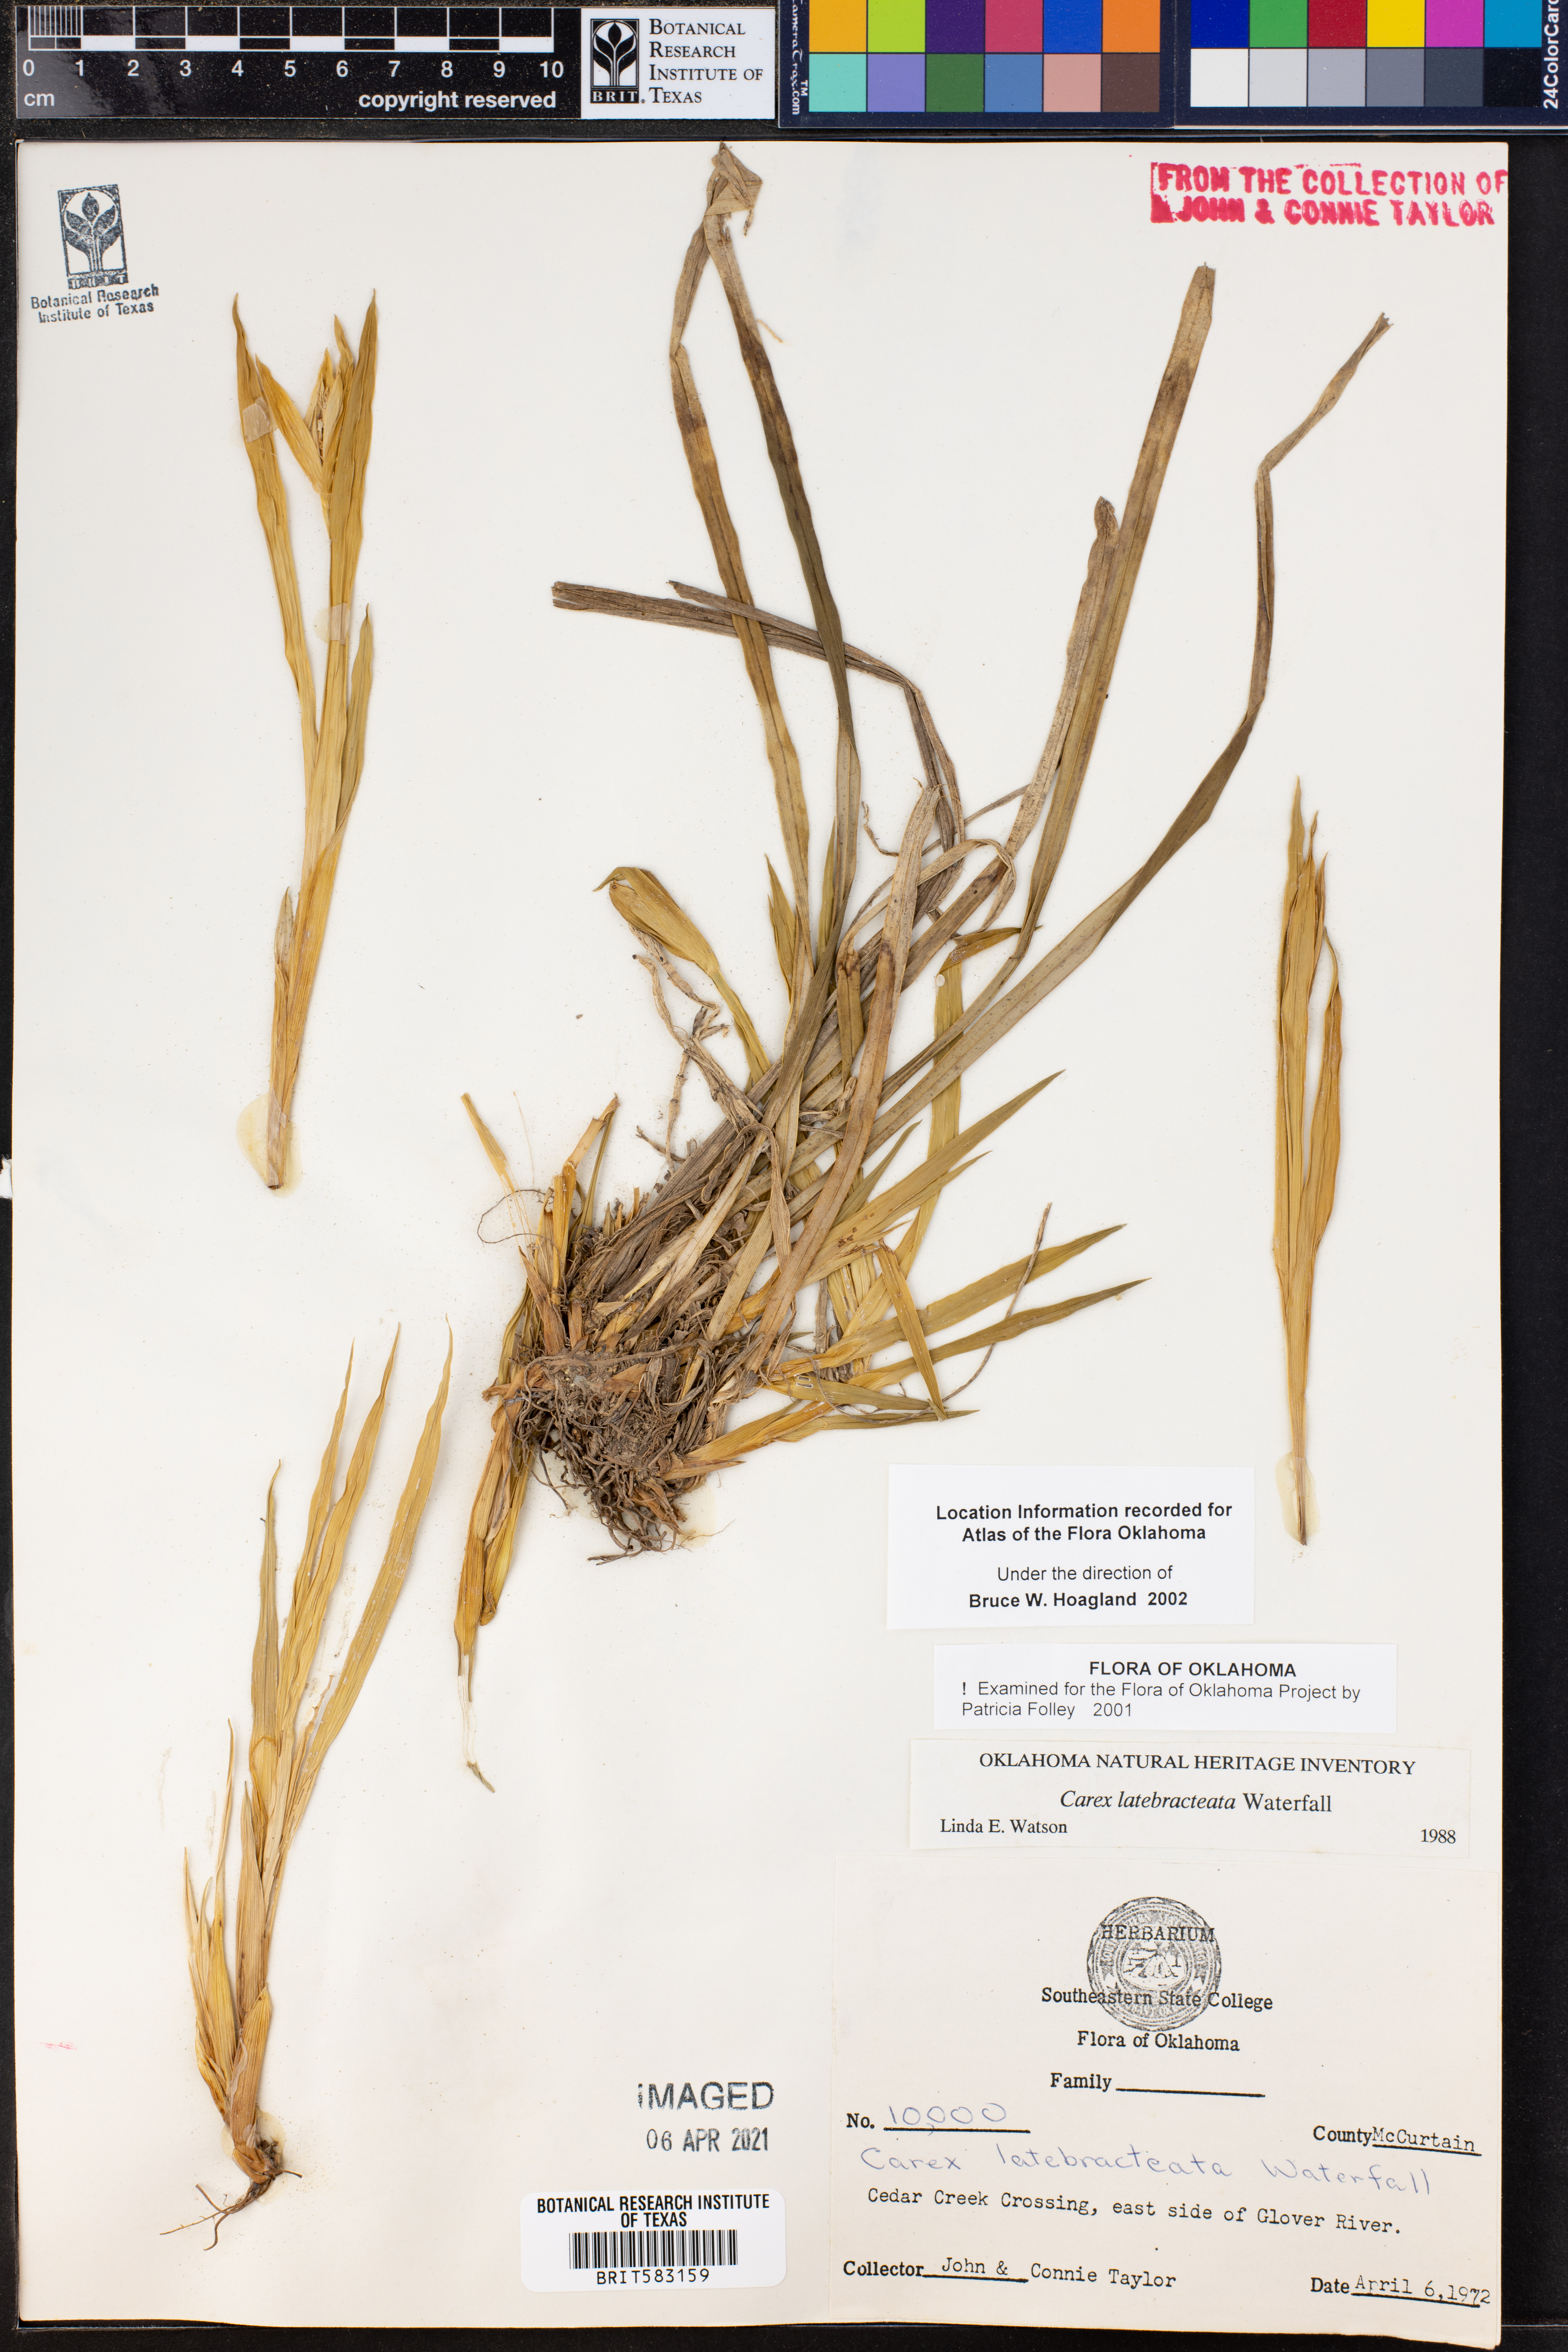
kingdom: Plantae
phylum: Tracheophyta
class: Liliopsida
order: Poales
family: Cyperaceae
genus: Carex
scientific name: Carex latebracteata
